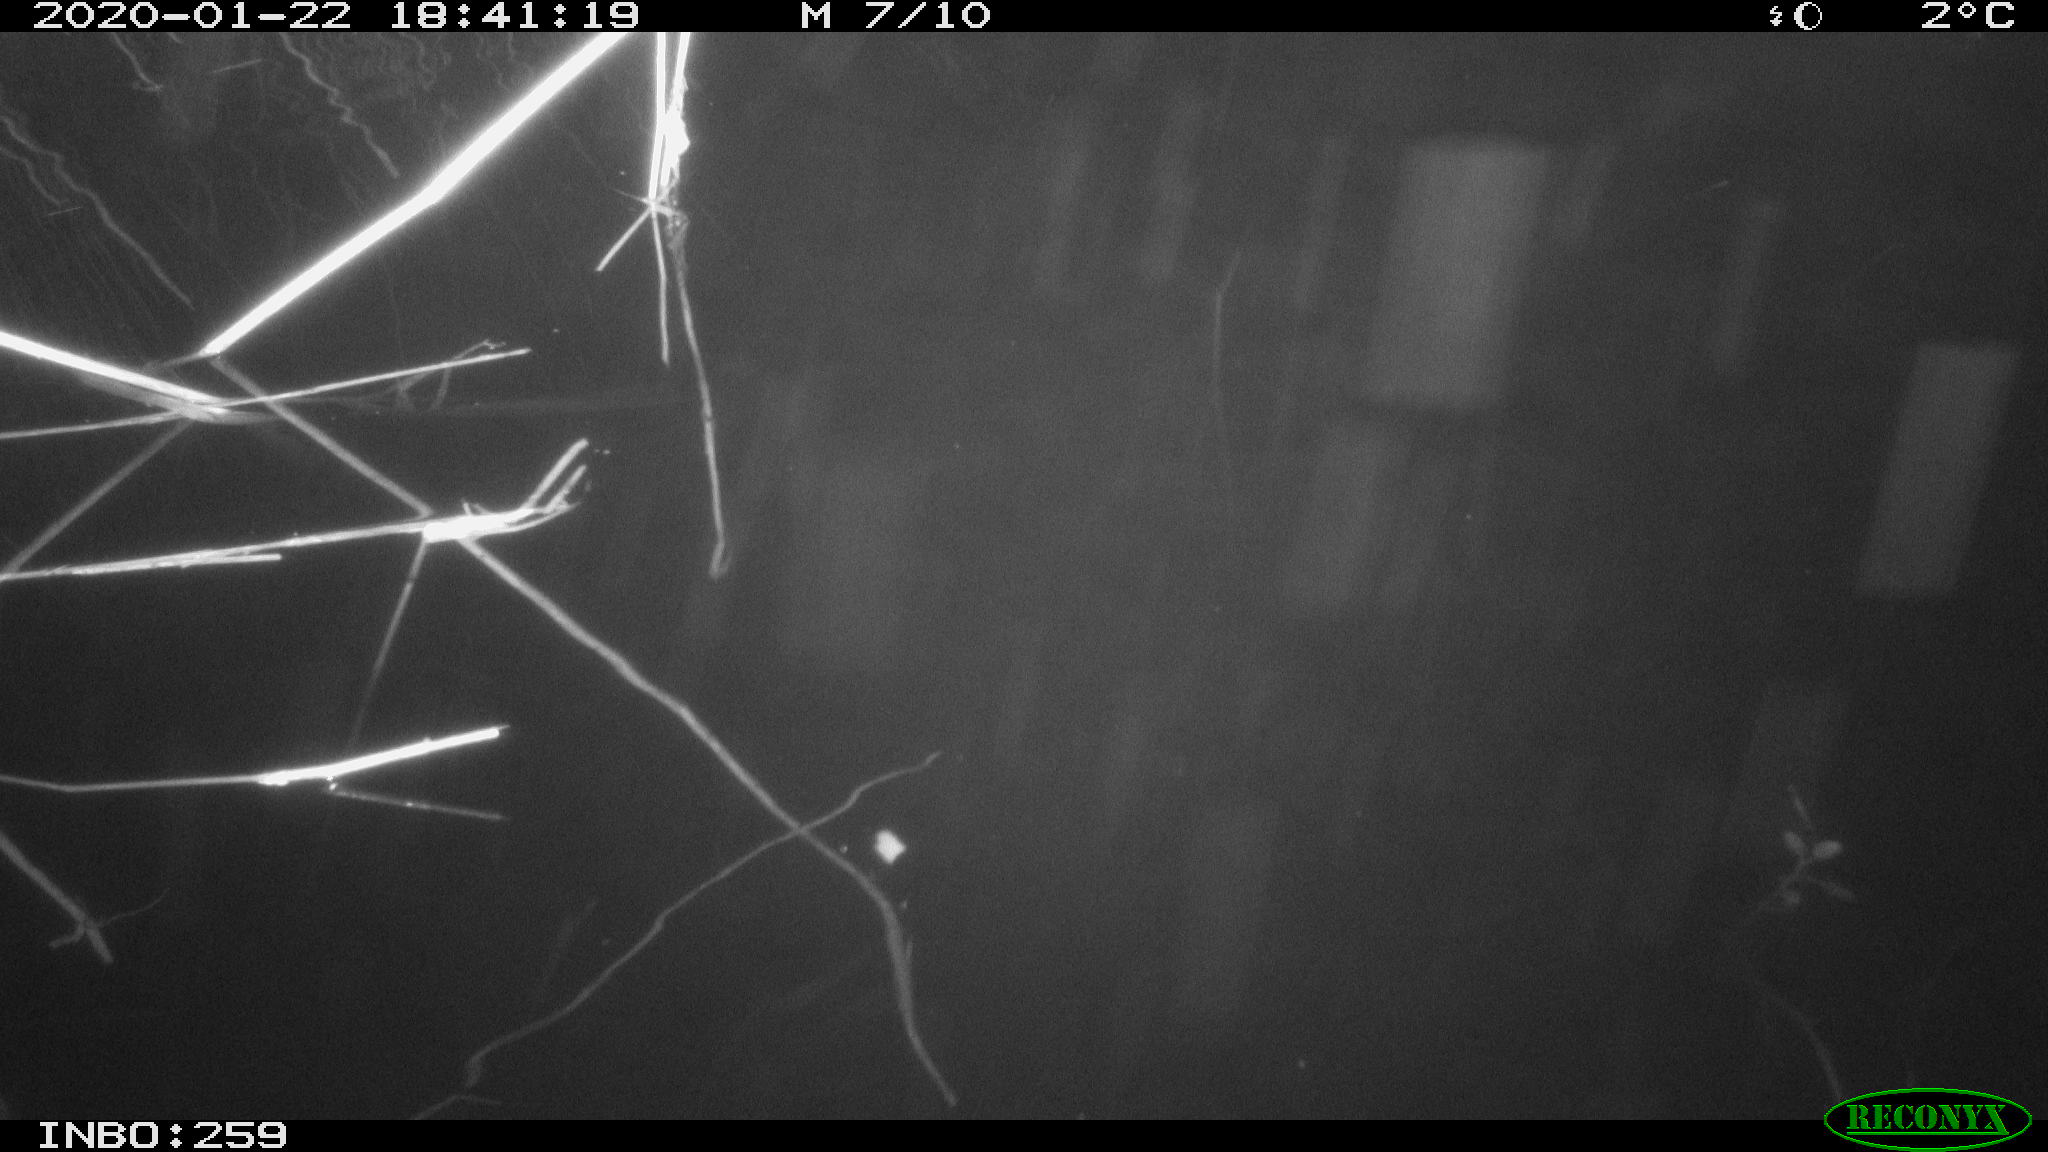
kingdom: Animalia
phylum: Chordata
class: Aves
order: Gruiformes
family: Rallidae
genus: Gallinula
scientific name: Gallinula chloropus
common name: Common moorhen
